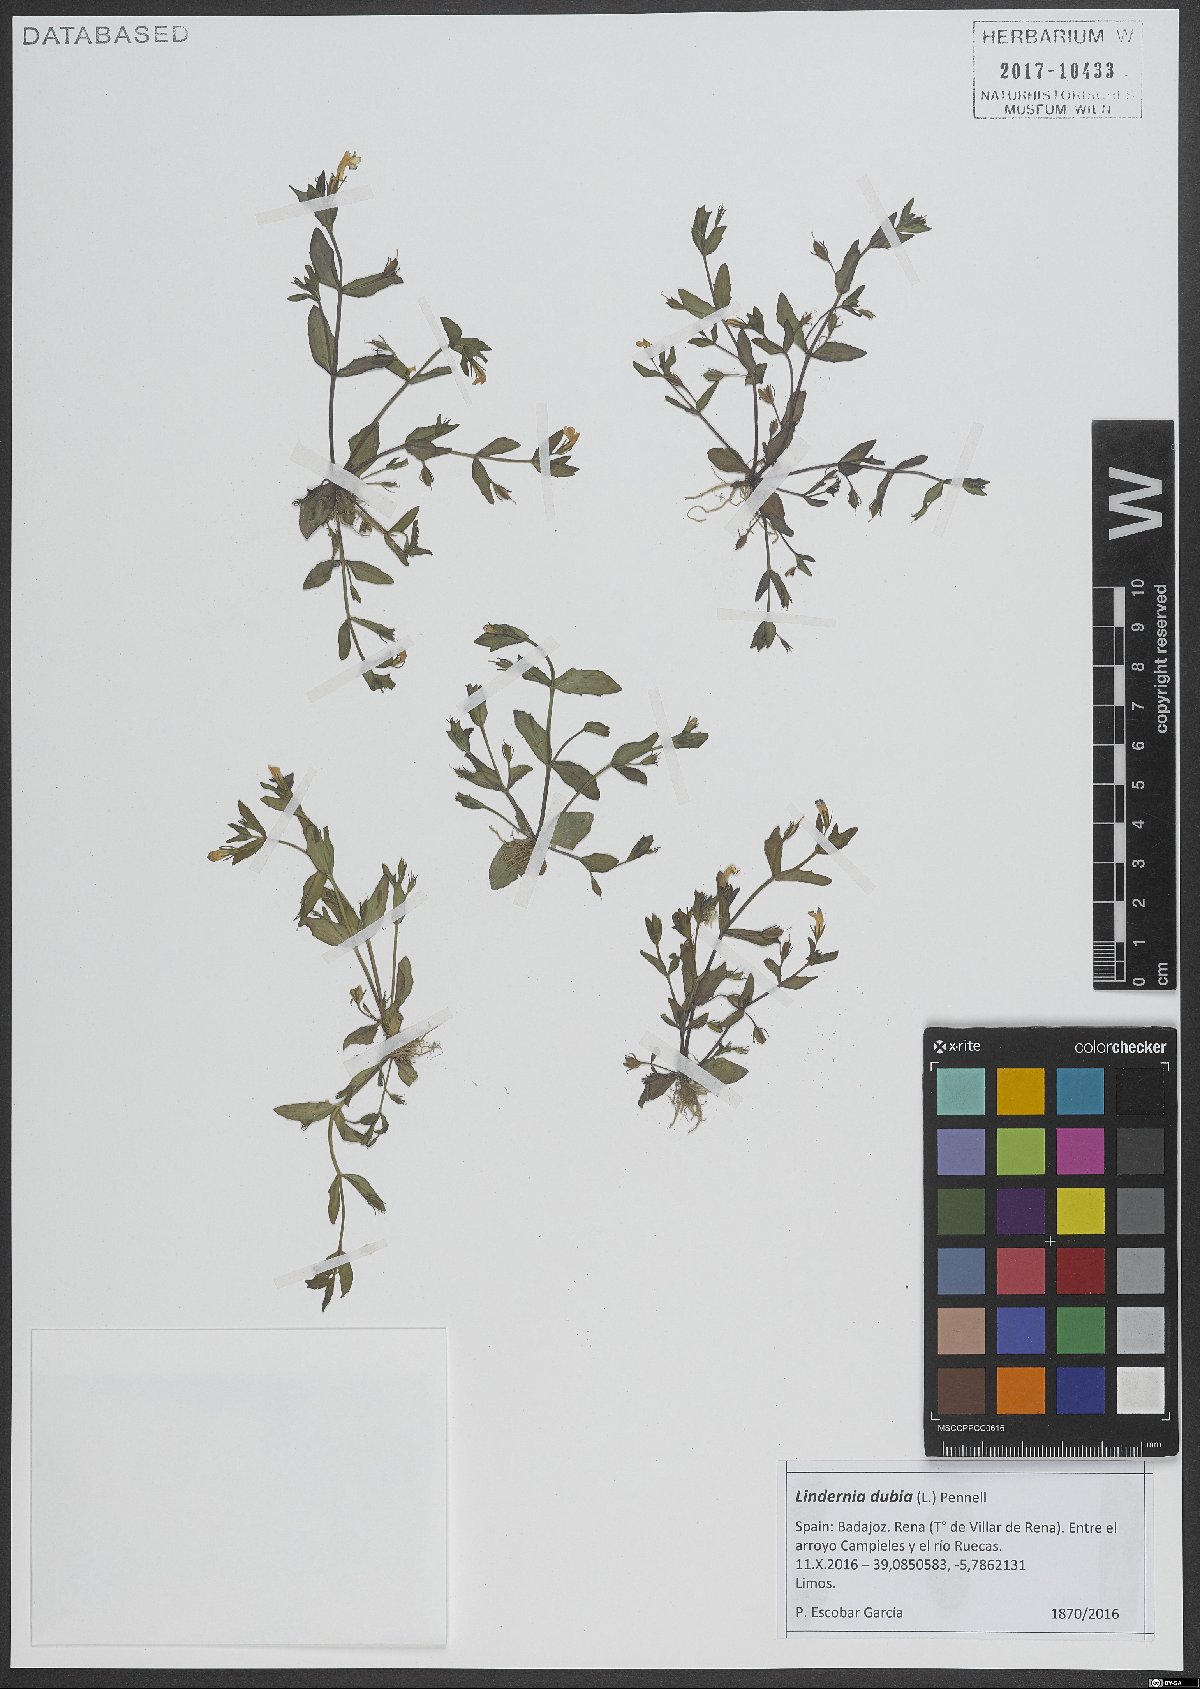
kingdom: Plantae
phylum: Tracheophyta
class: Magnoliopsida
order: Lamiales
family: Linderniaceae
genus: Lindernia
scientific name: Lindernia dubia
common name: Annual false pimpernel
